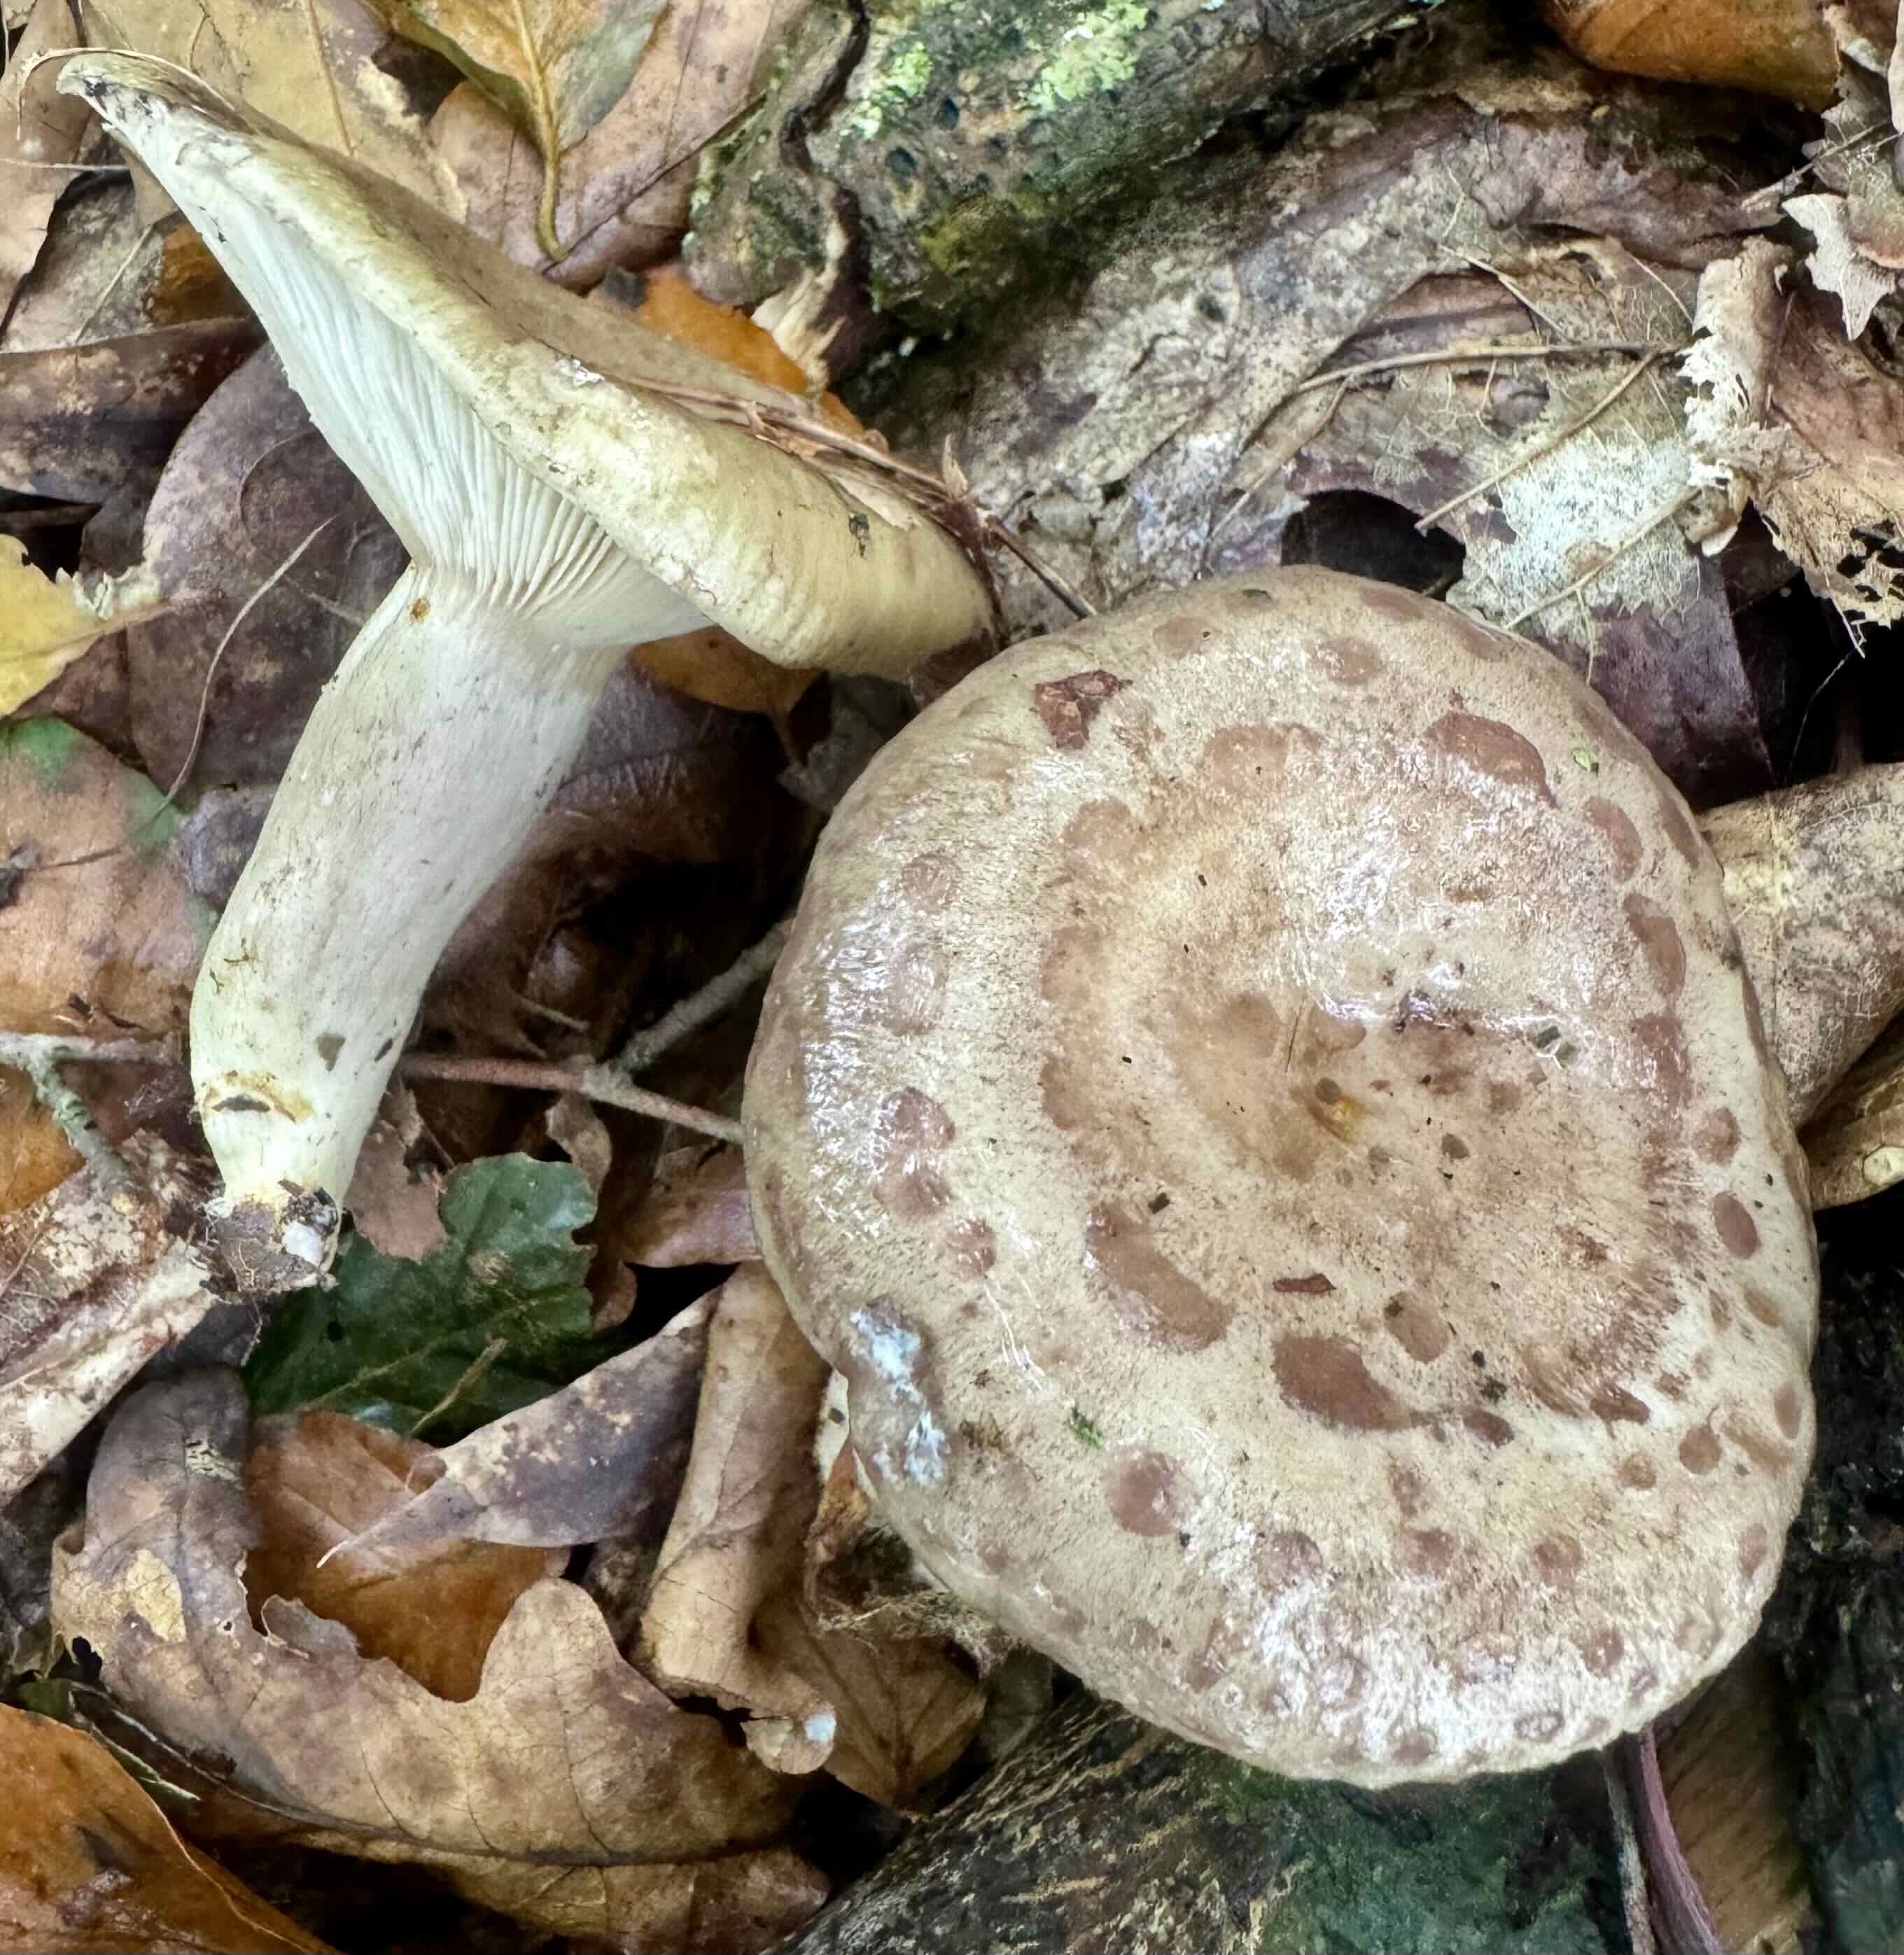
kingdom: Fungi
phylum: Basidiomycota
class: Agaricomycetes
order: Russulales
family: Russulaceae
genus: Lactarius
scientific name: Lactarius blennius
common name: dråbeplettet mælkehat
